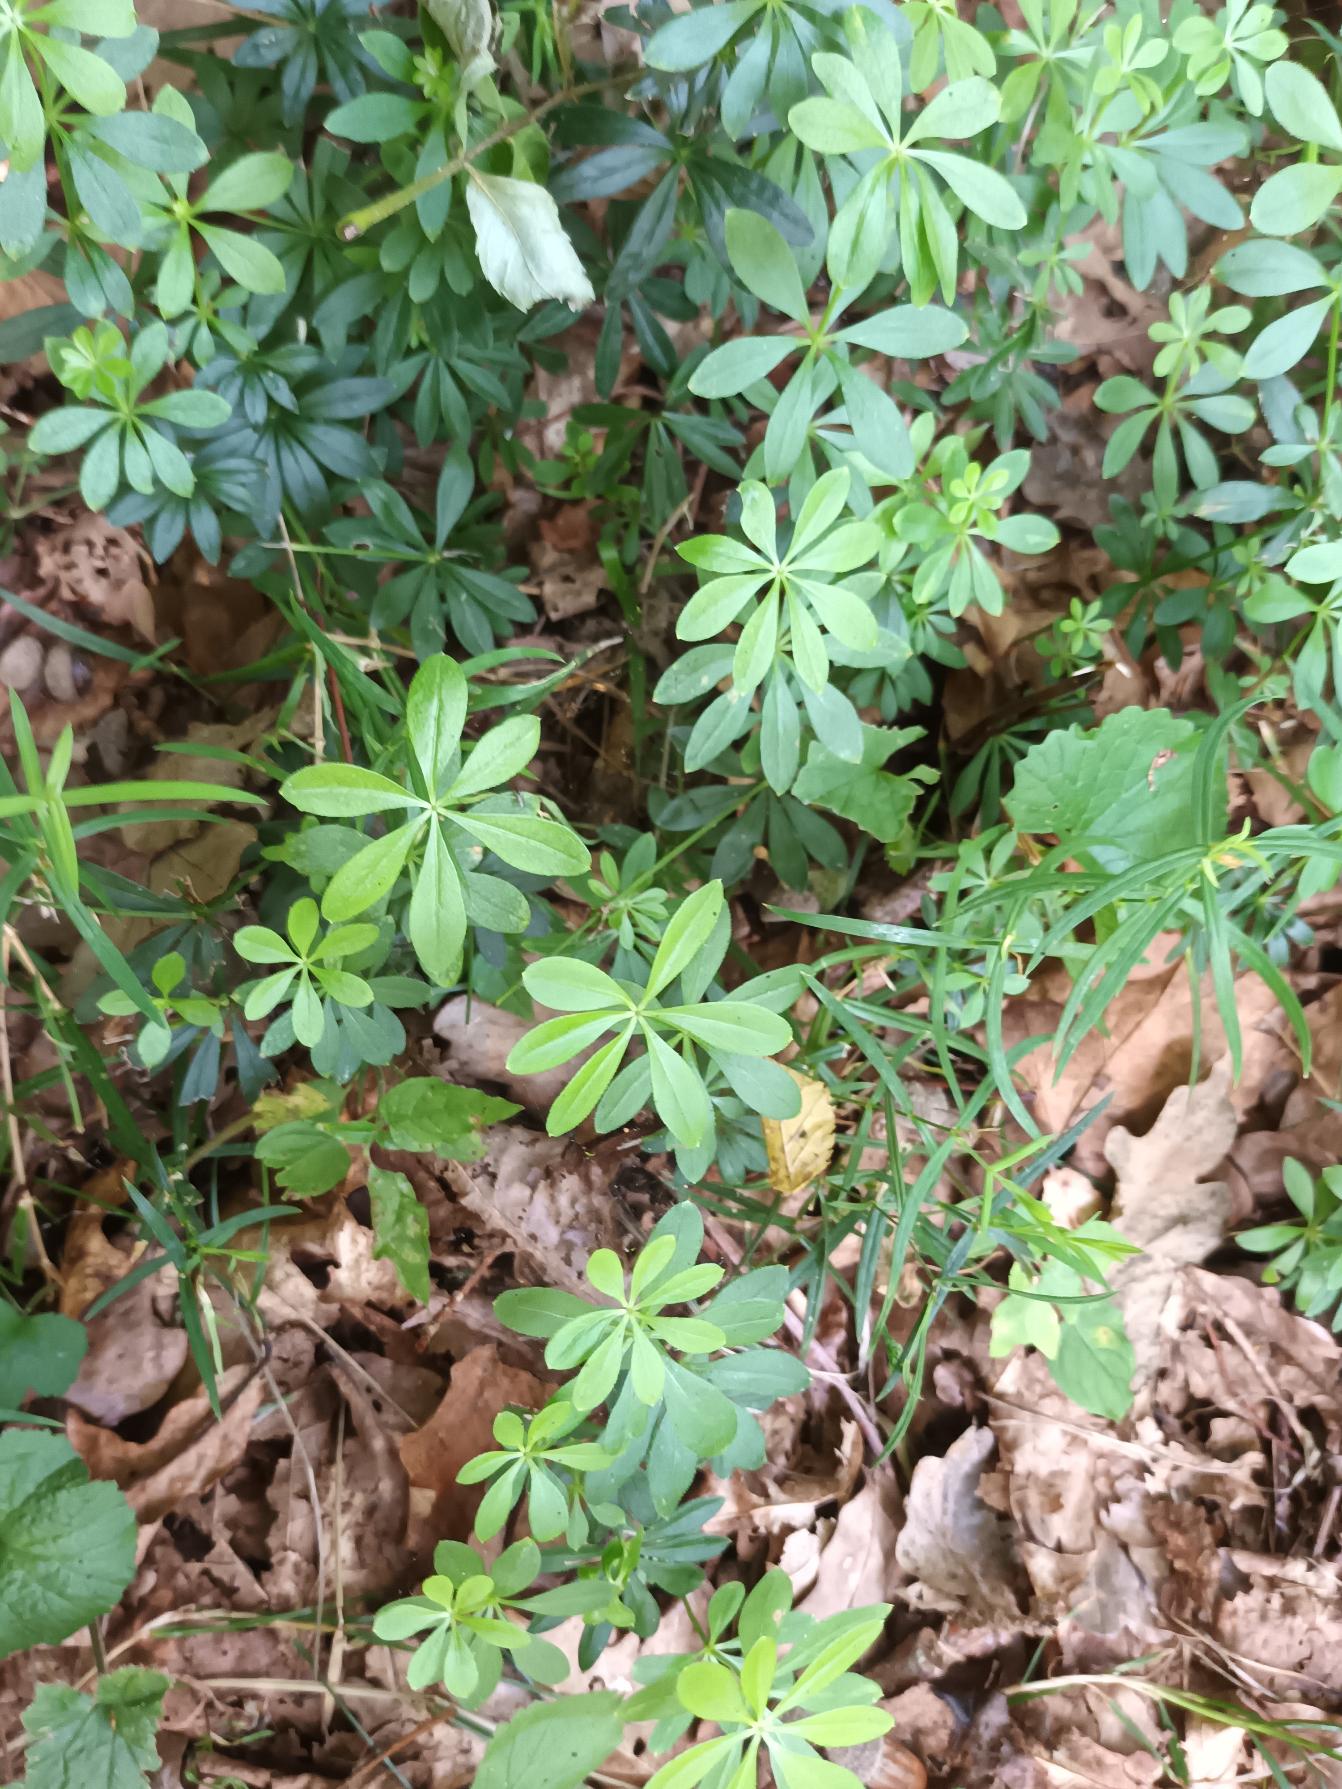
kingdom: Plantae
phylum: Tracheophyta
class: Magnoliopsida
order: Gentianales
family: Rubiaceae
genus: Galium
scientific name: Galium odoratum
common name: Skovmærke
